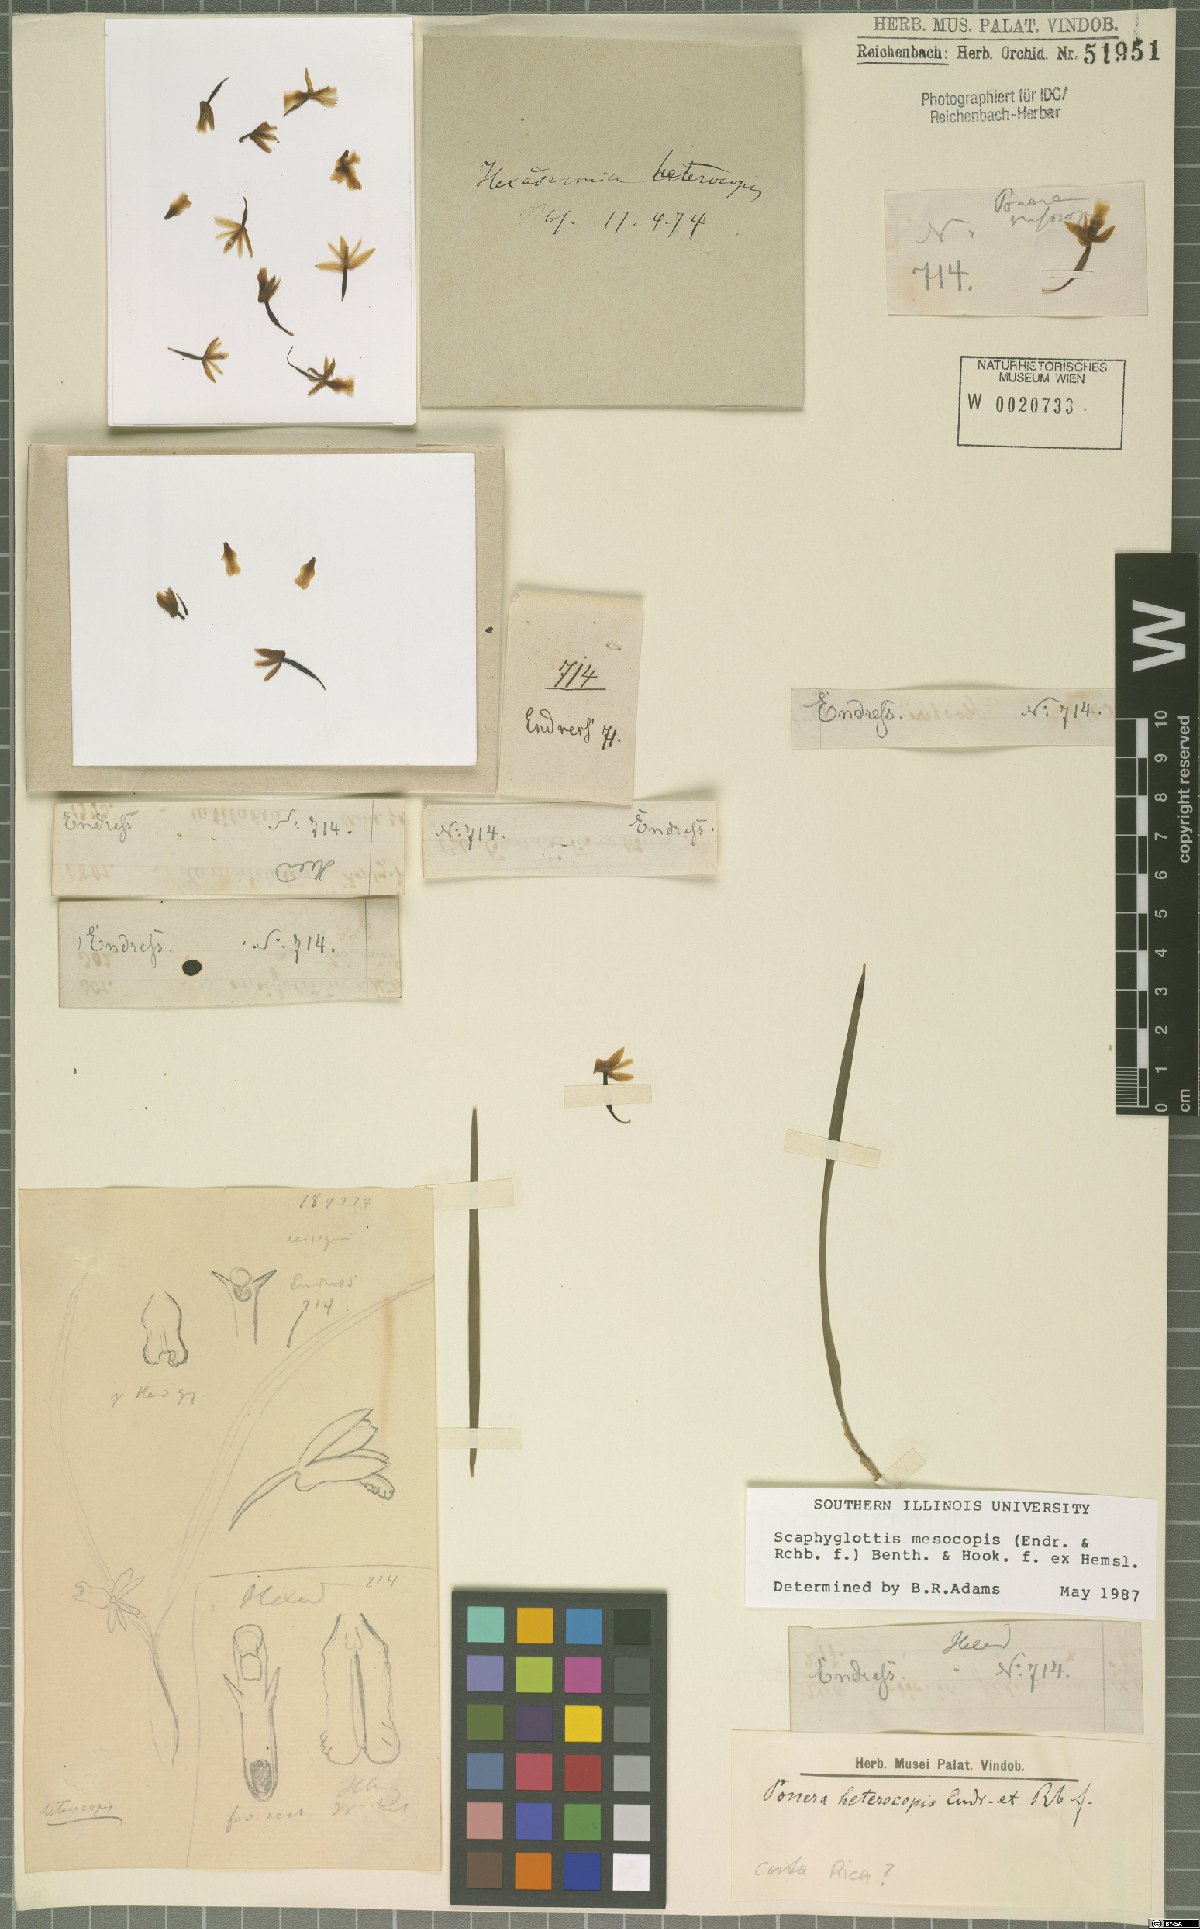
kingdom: Plantae
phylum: Tracheophyta
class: Liliopsida
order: Asparagales
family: Orchidaceae
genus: Scaphyglottis
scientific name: Scaphyglottis mesocopis
